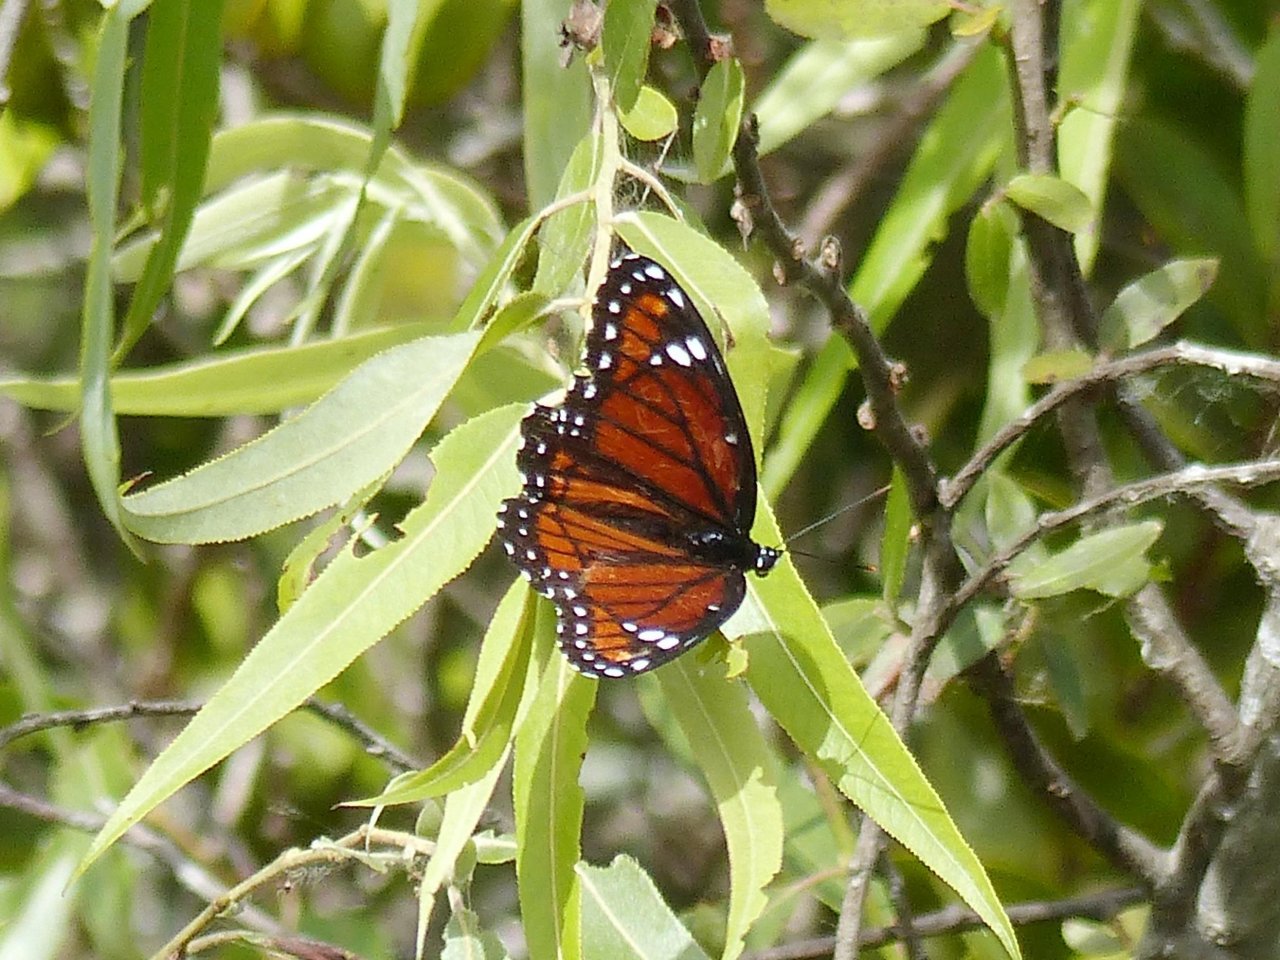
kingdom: Animalia
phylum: Arthropoda
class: Insecta
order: Lepidoptera
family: Nymphalidae
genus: Limenitis
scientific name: Limenitis archippus
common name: Viceroy
